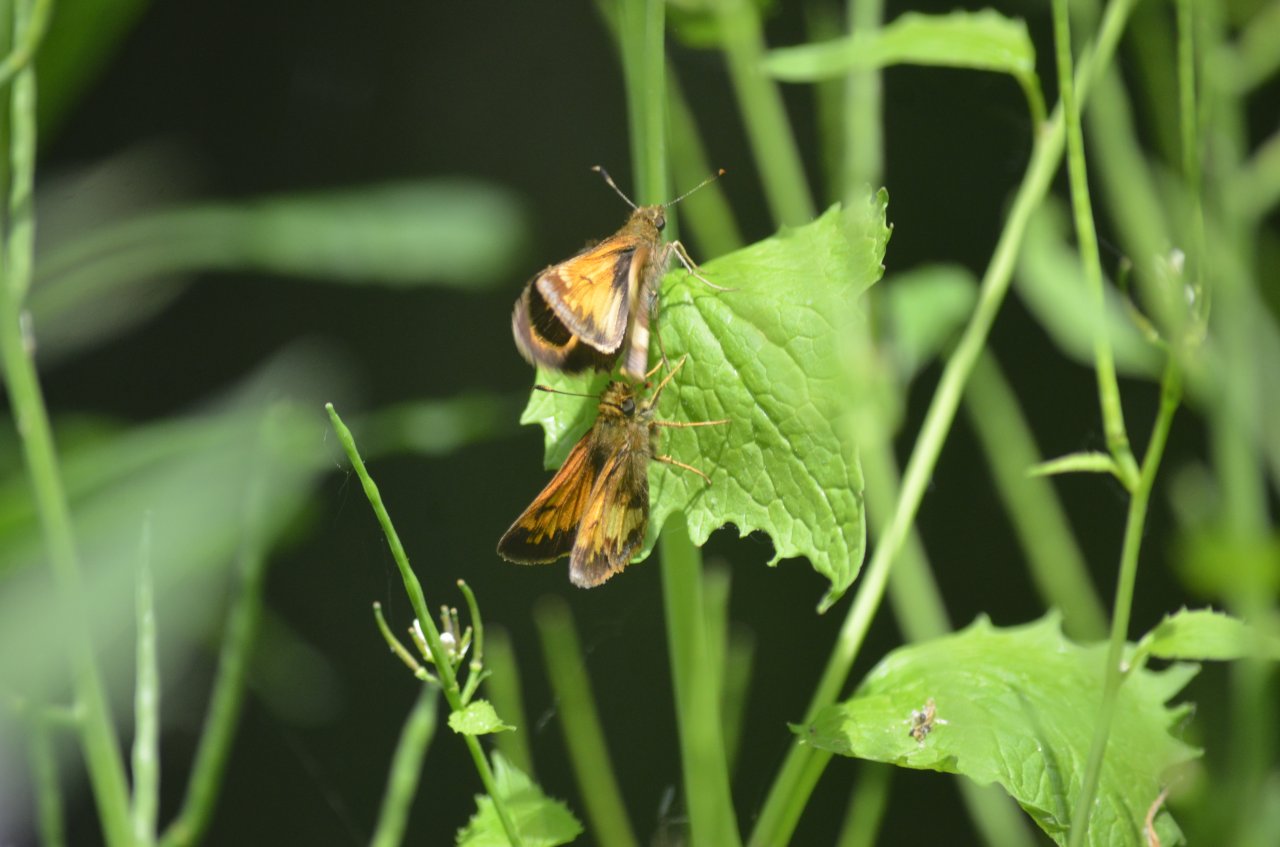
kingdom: Animalia
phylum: Arthropoda
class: Insecta
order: Lepidoptera
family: Hesperiidae
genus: Lon
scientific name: Lon hobomok
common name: Hobomok Skipper
